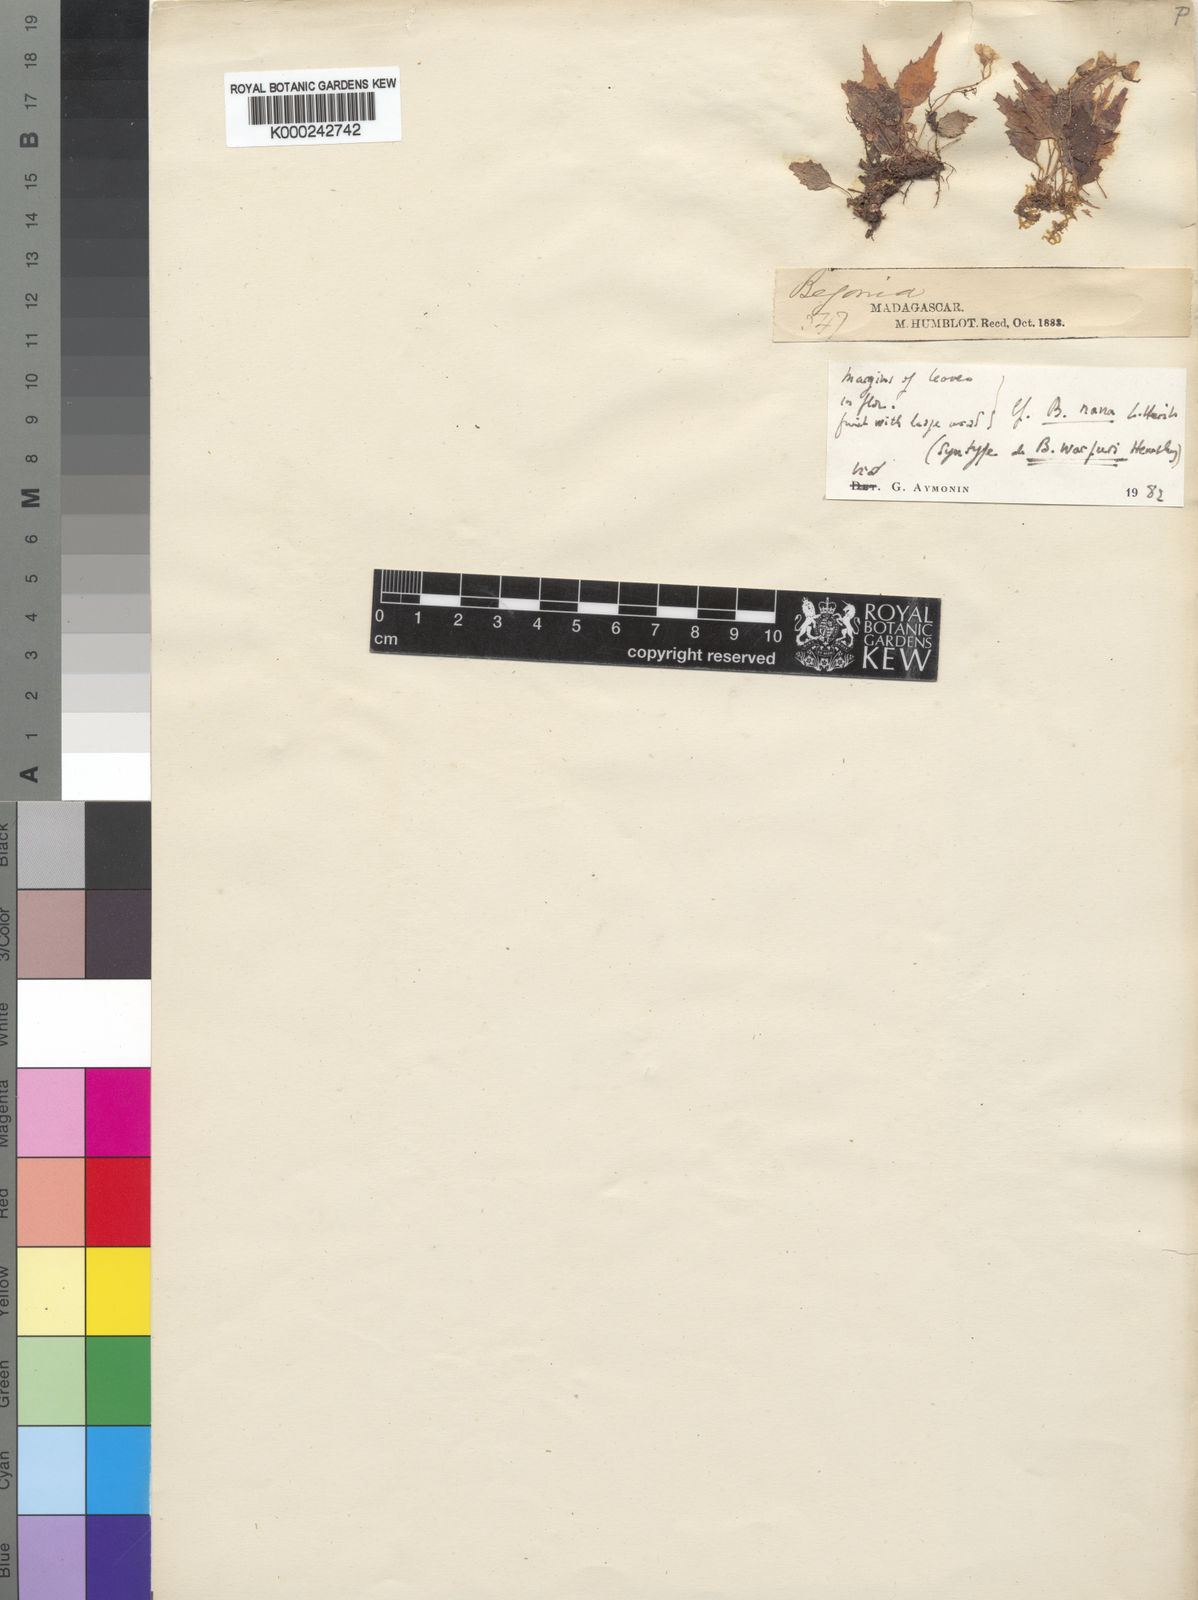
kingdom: Plantae
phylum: Tracheophyta
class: Magnoliopsida
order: Cucurbitales
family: Begoniaceae
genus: Begonia
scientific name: Begonia
